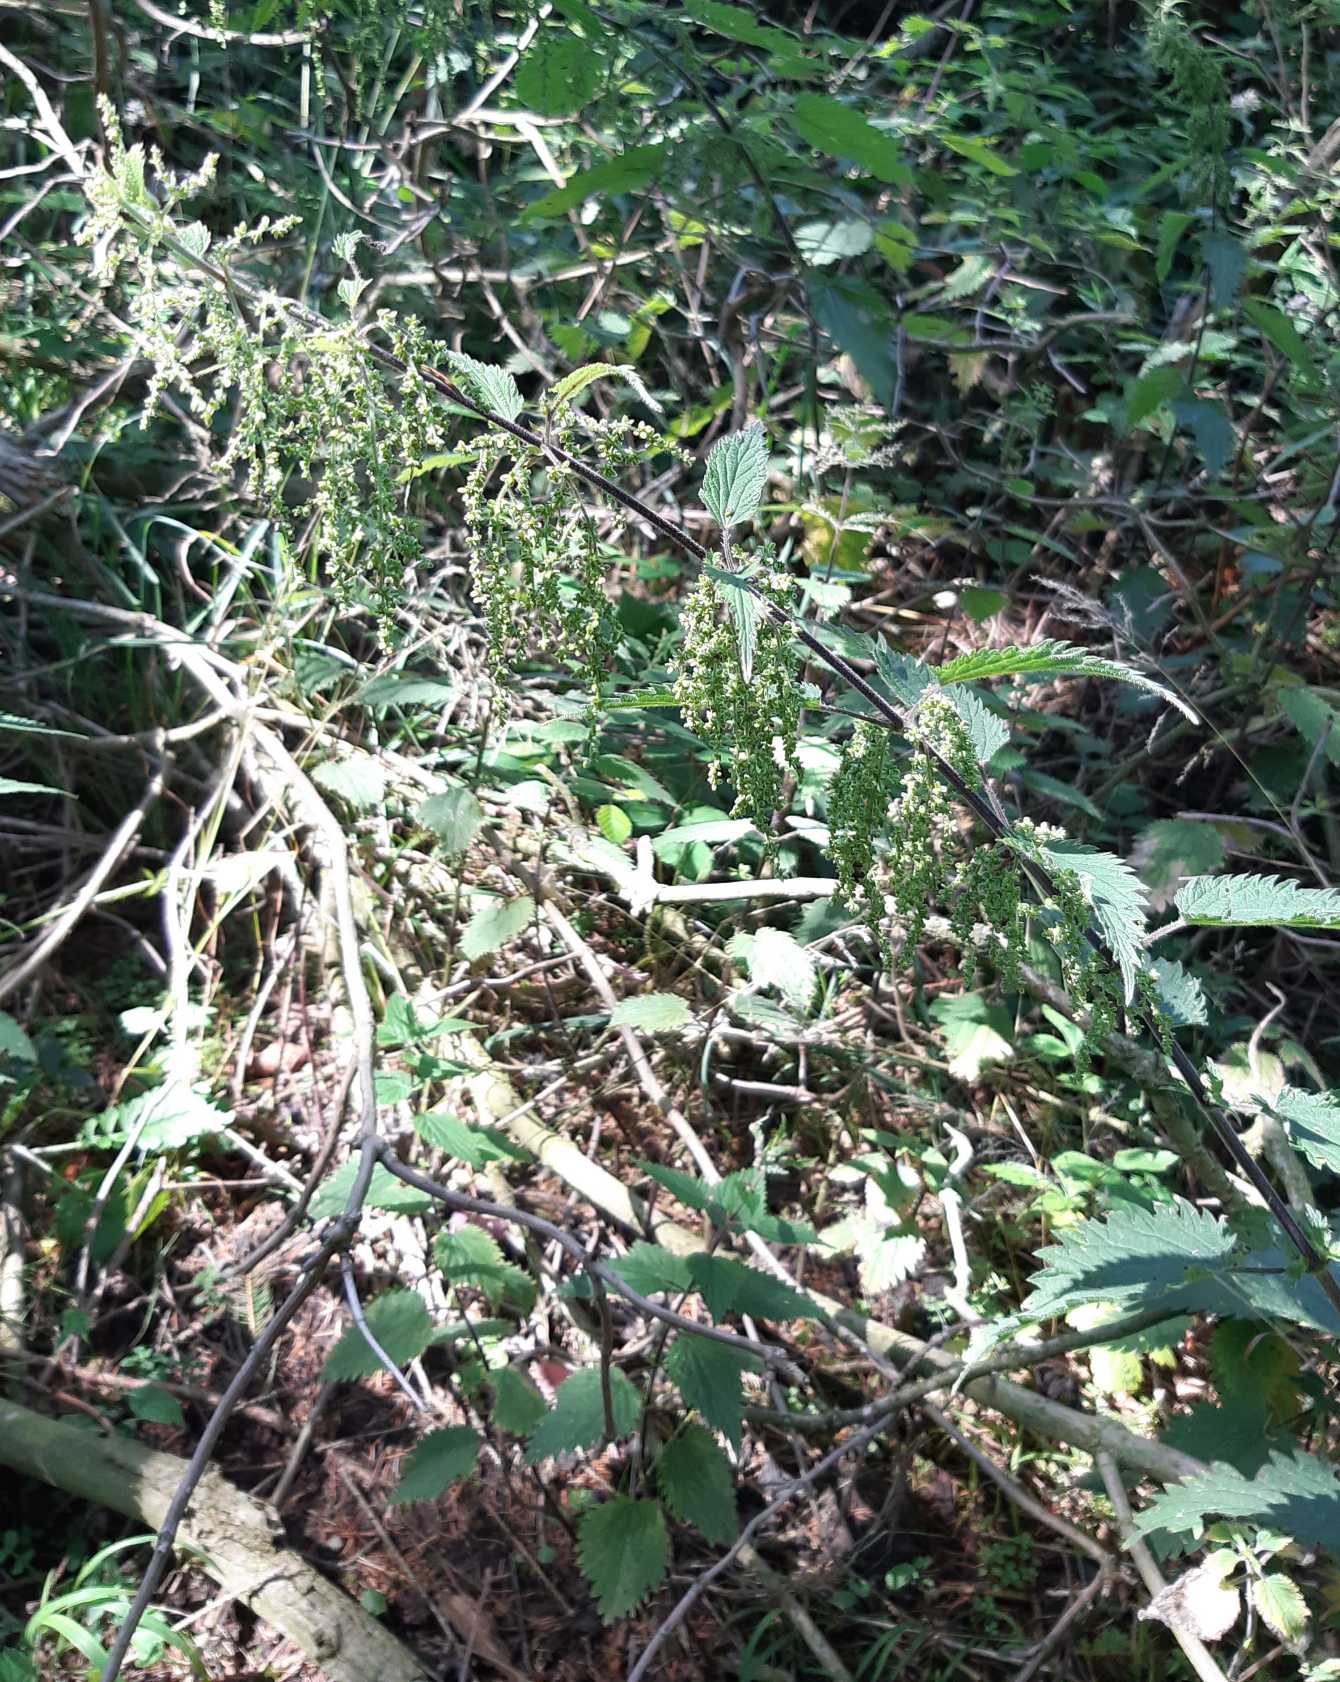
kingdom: Plantae
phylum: Tracheophyta
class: Magnoliopsida
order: Rosales
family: Urticaceae
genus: Urtica
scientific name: Urtica dioica
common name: Stor nælde
